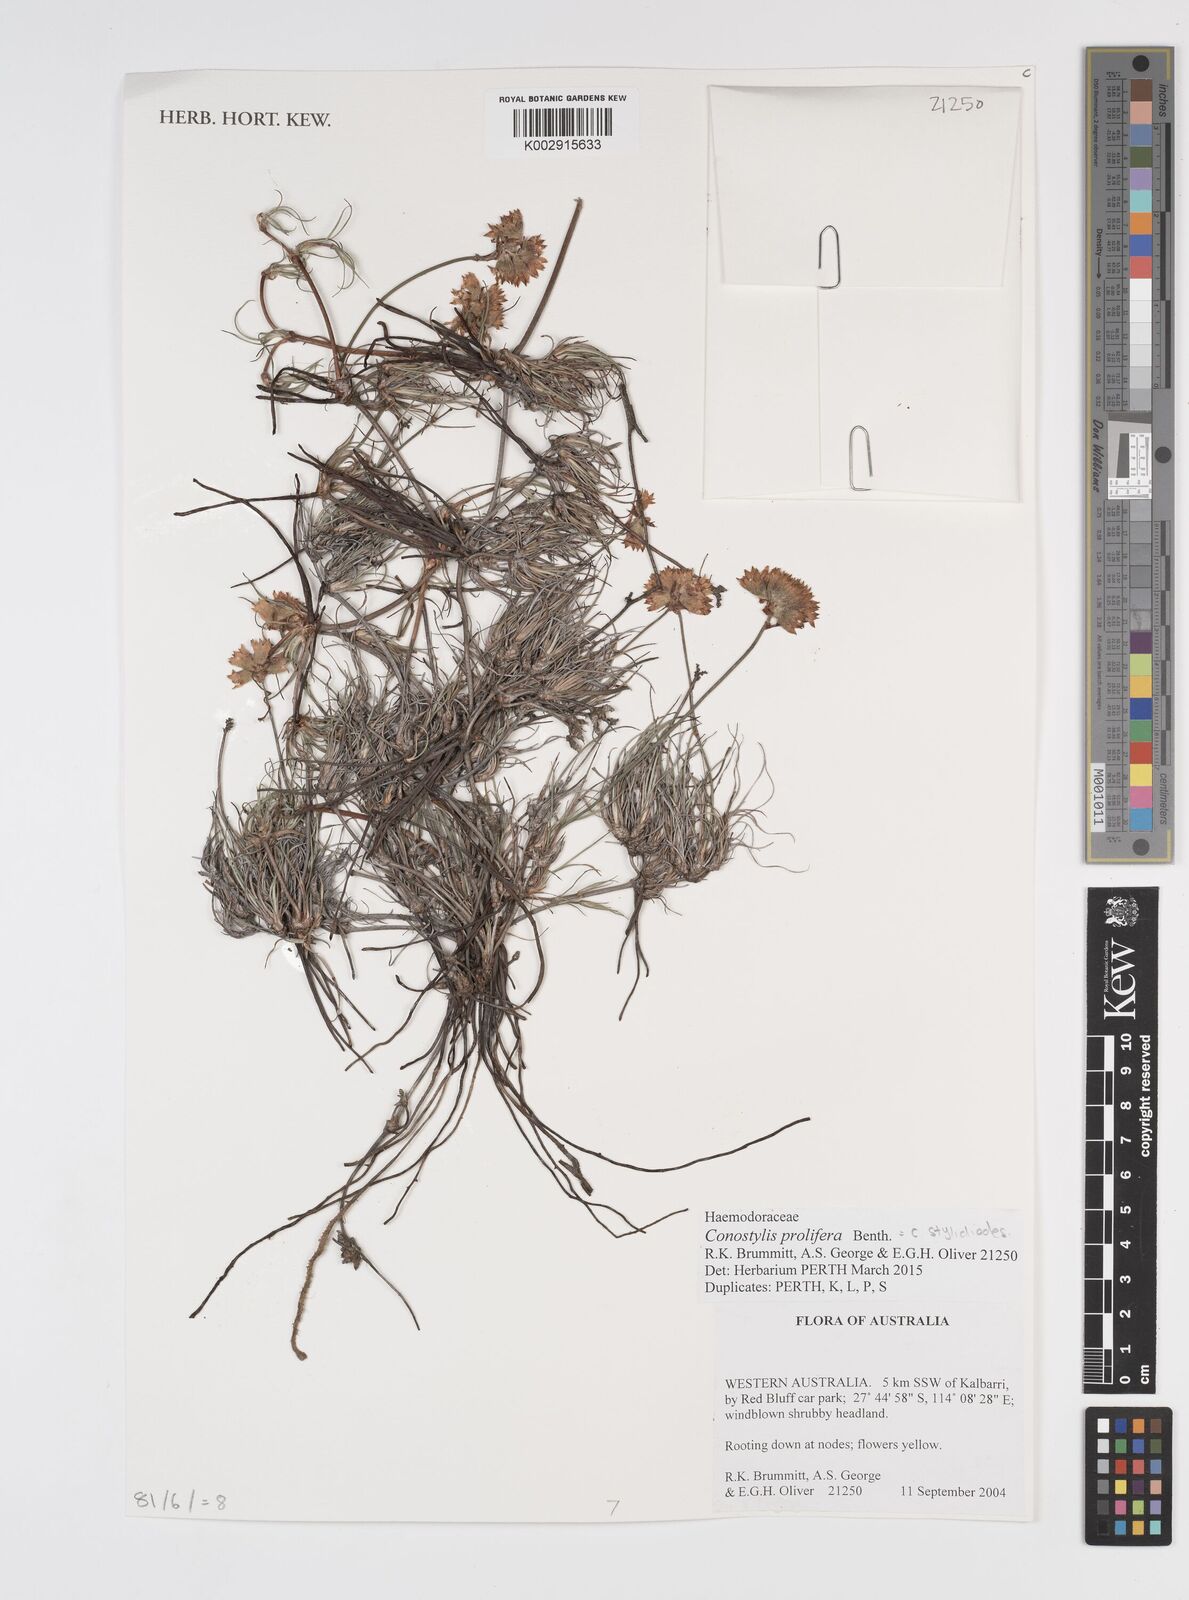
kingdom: Plantae
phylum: Tracheophyta
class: Liliopsida
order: Commelinales
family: Haemodoraceae
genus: Conostylis
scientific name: Conostylis stylidioides
